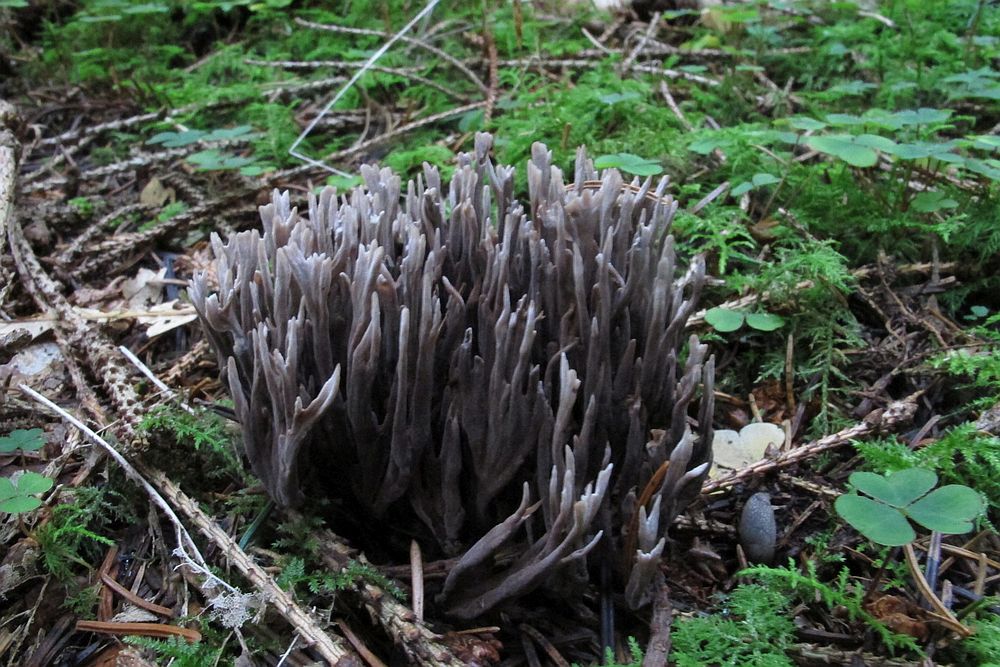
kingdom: Fungi
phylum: Basidiomycota
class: Agaricomycetes
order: Thelephorales
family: Thelephoraceae
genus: Thelephora
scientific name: Thelephora palmata
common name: grenet frynsesvamp
